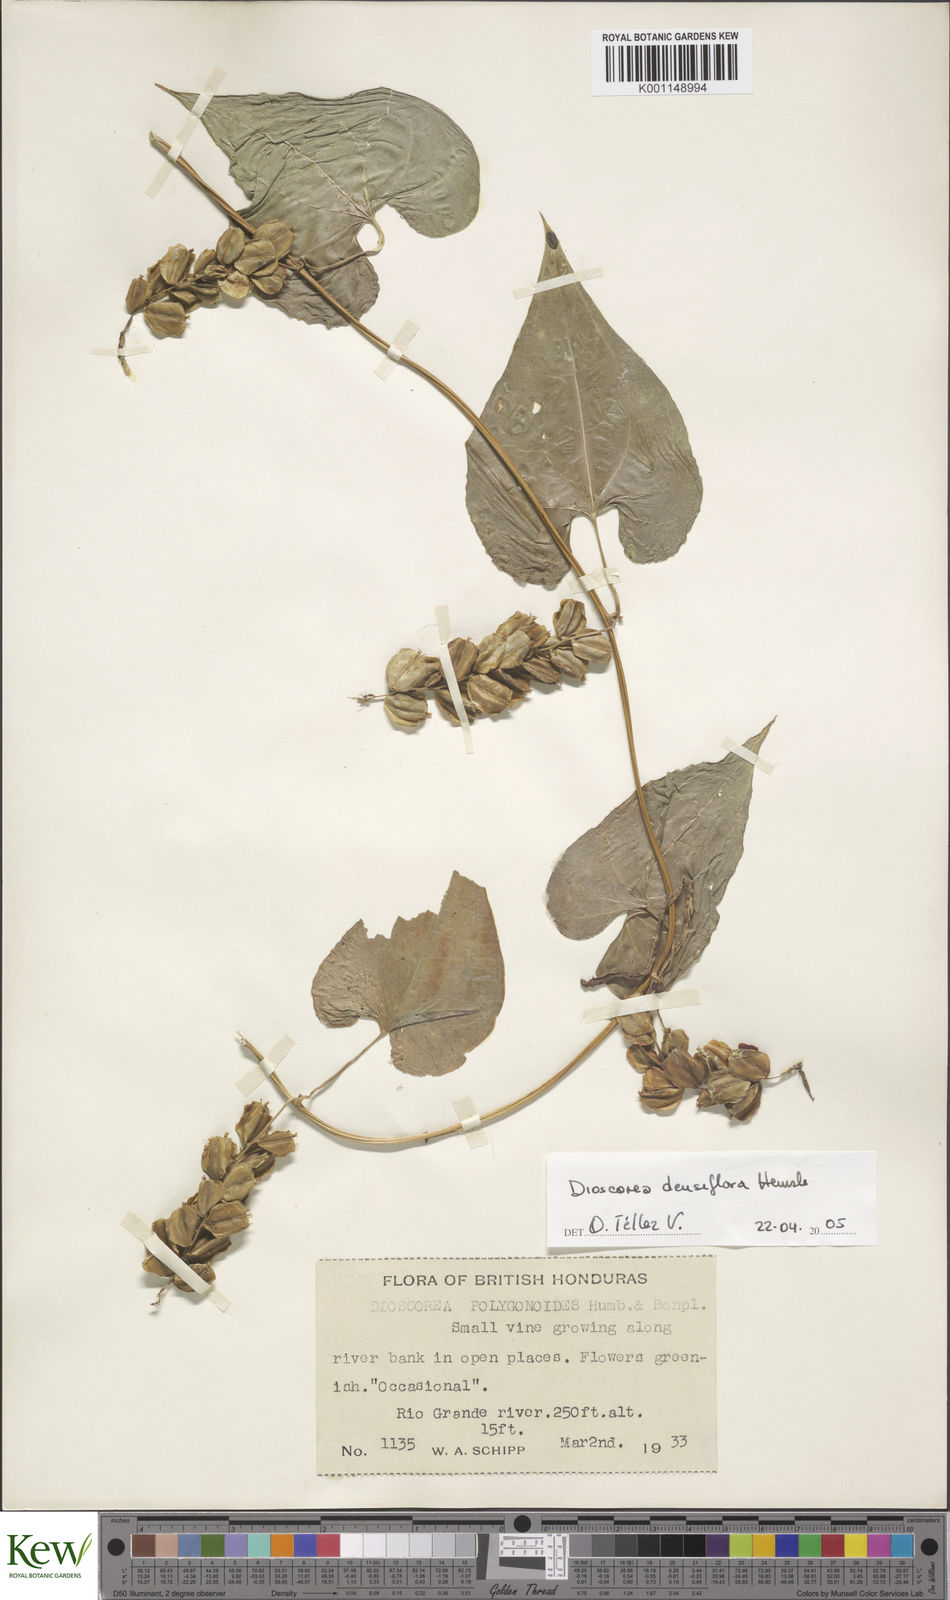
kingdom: Plantae
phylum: Tracheophyta
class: Liliopsida
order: Dioscoreales
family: Dioscoreaceae
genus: Dioscorea
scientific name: Dioscorea floribunda
